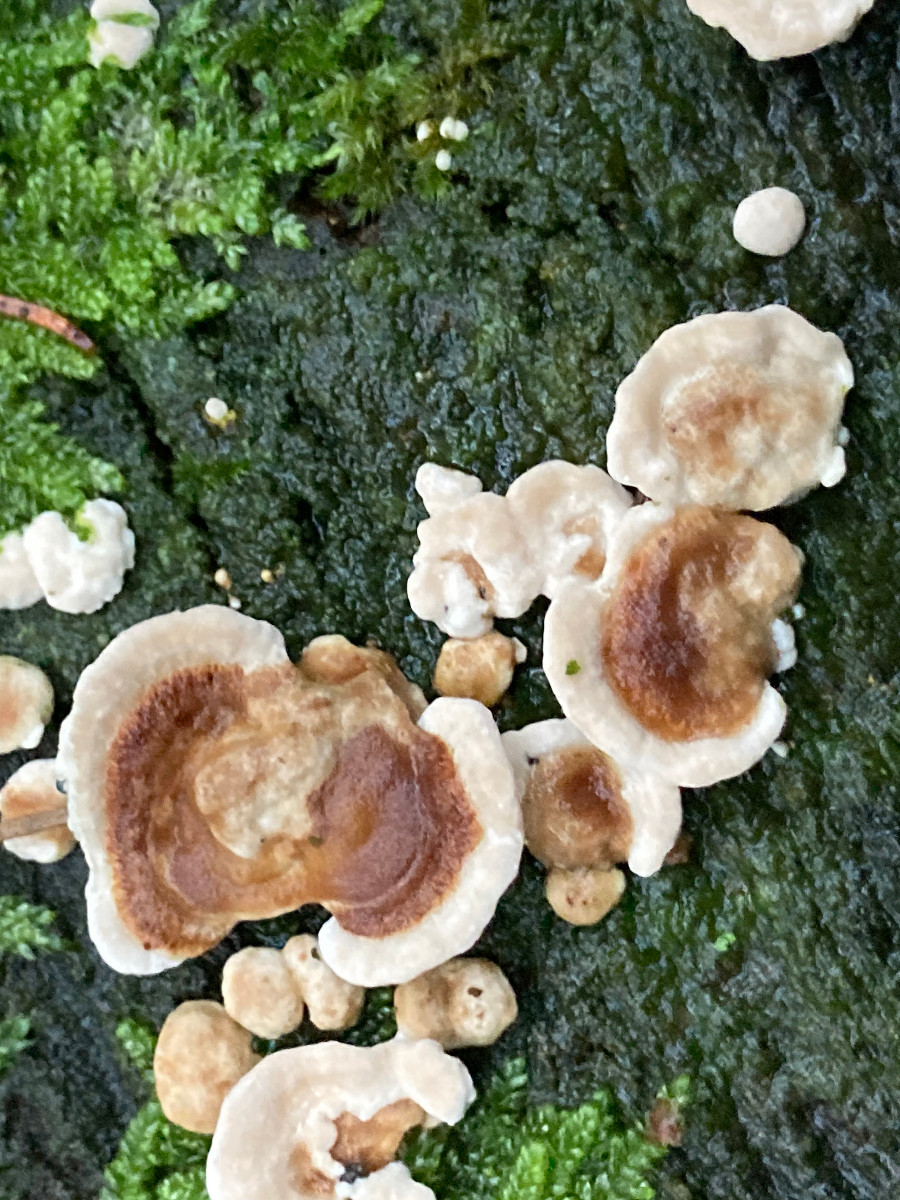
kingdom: Fungi
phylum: Basidiomycota
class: Agaricomycetes
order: Russulales
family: Stereaceae
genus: Stereum
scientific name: Stereum hirsutum
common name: håret lædersvamp
